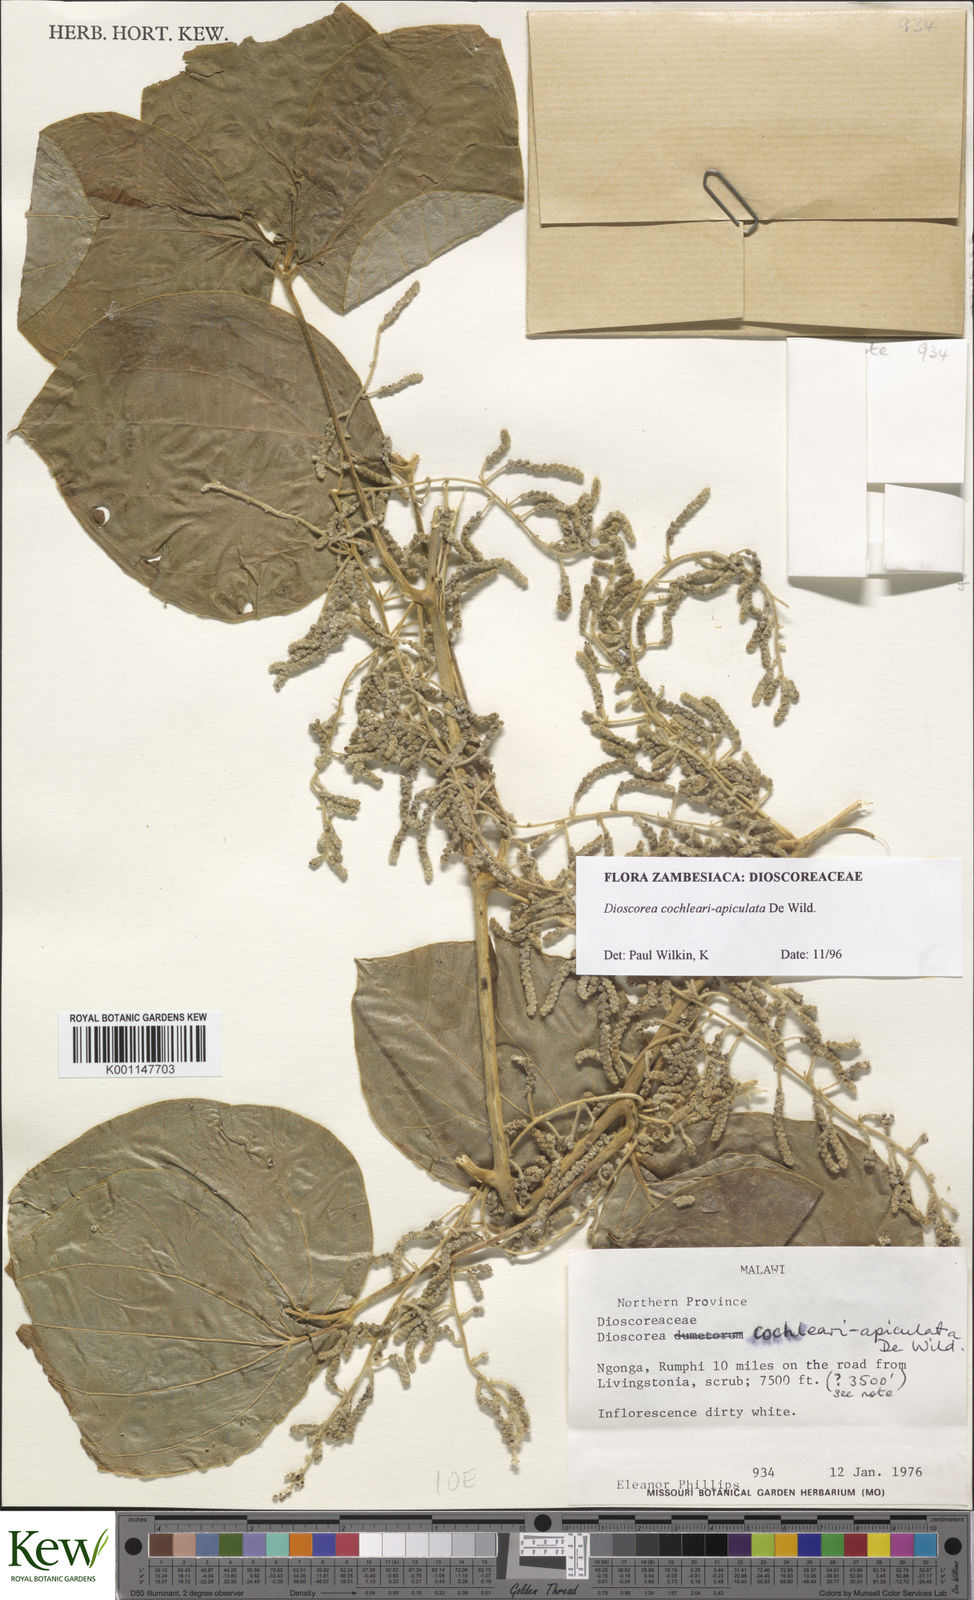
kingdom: Plantae
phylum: Tracheophyta
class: Liliopsida
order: Dioscoreales
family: Dioscoreaceae
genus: Dioscorea
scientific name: Dioscorea cochleariapiculata
